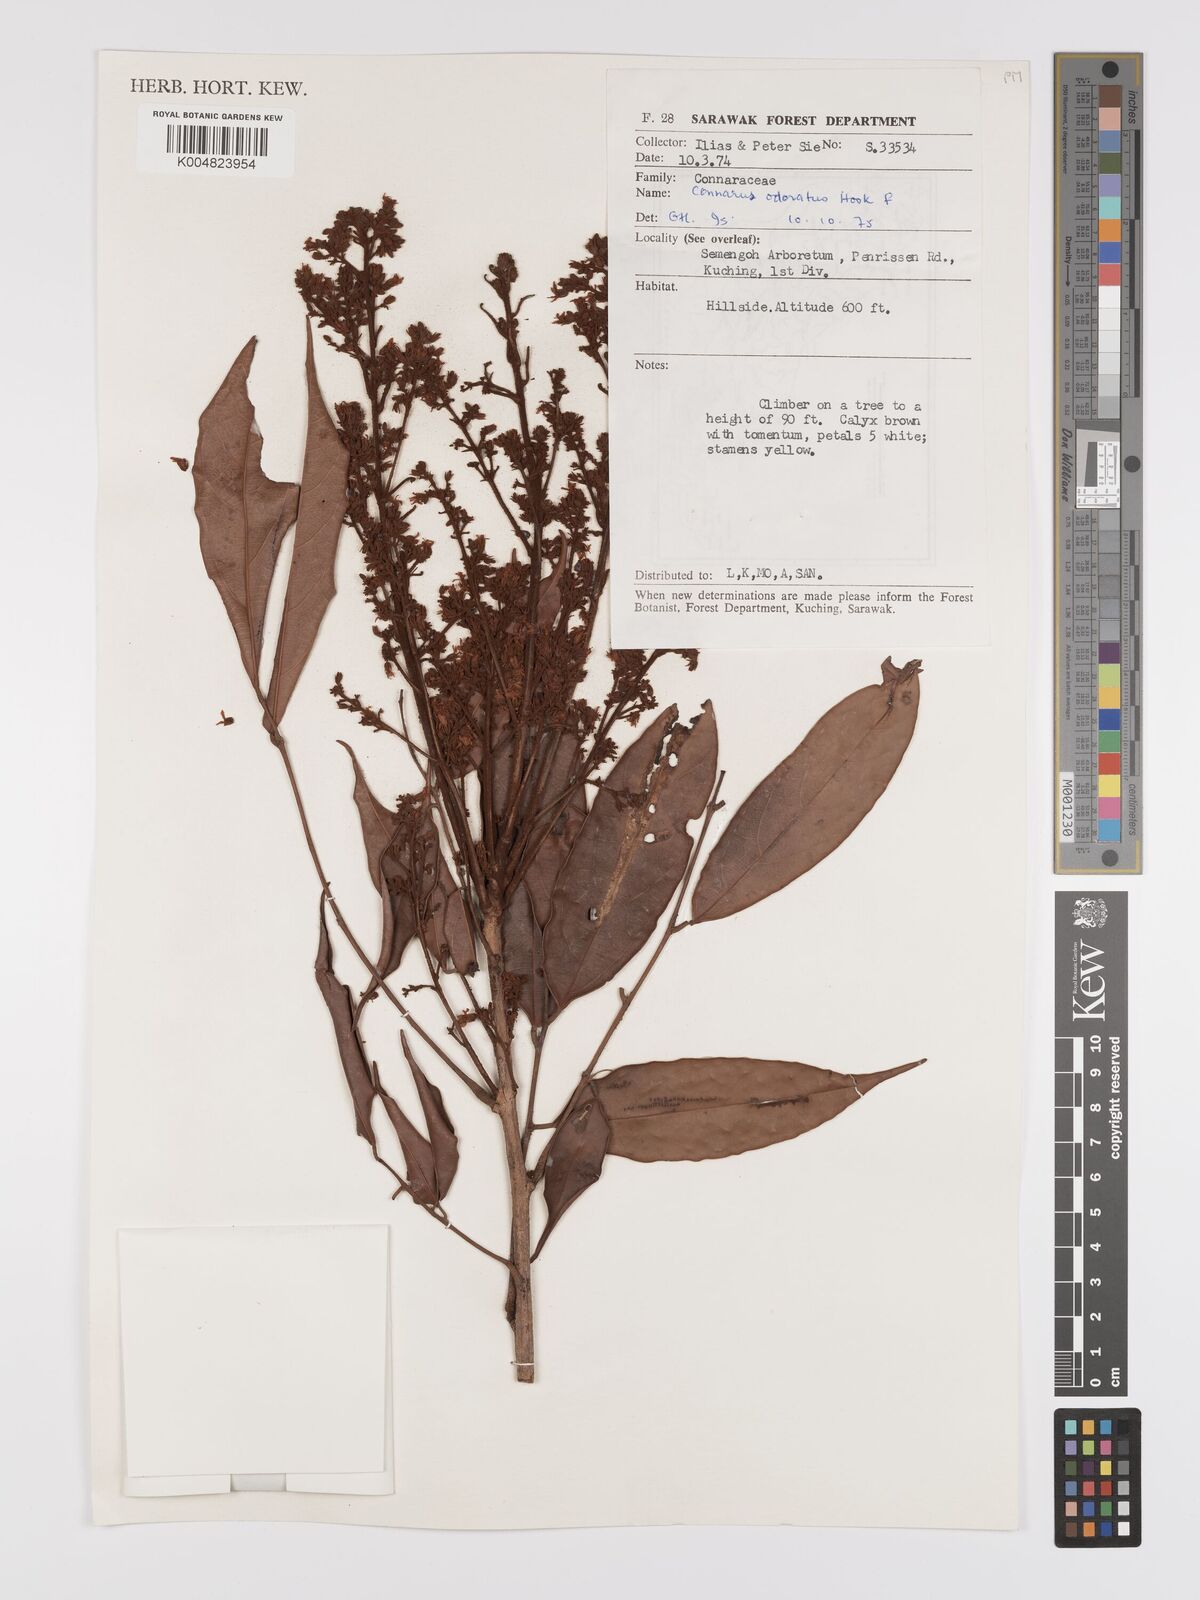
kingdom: Plantae
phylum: Tracheophyta
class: Magnoliopsida
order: Oxalidales
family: Connaraceae
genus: Connarus
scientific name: Connarus odoratus
